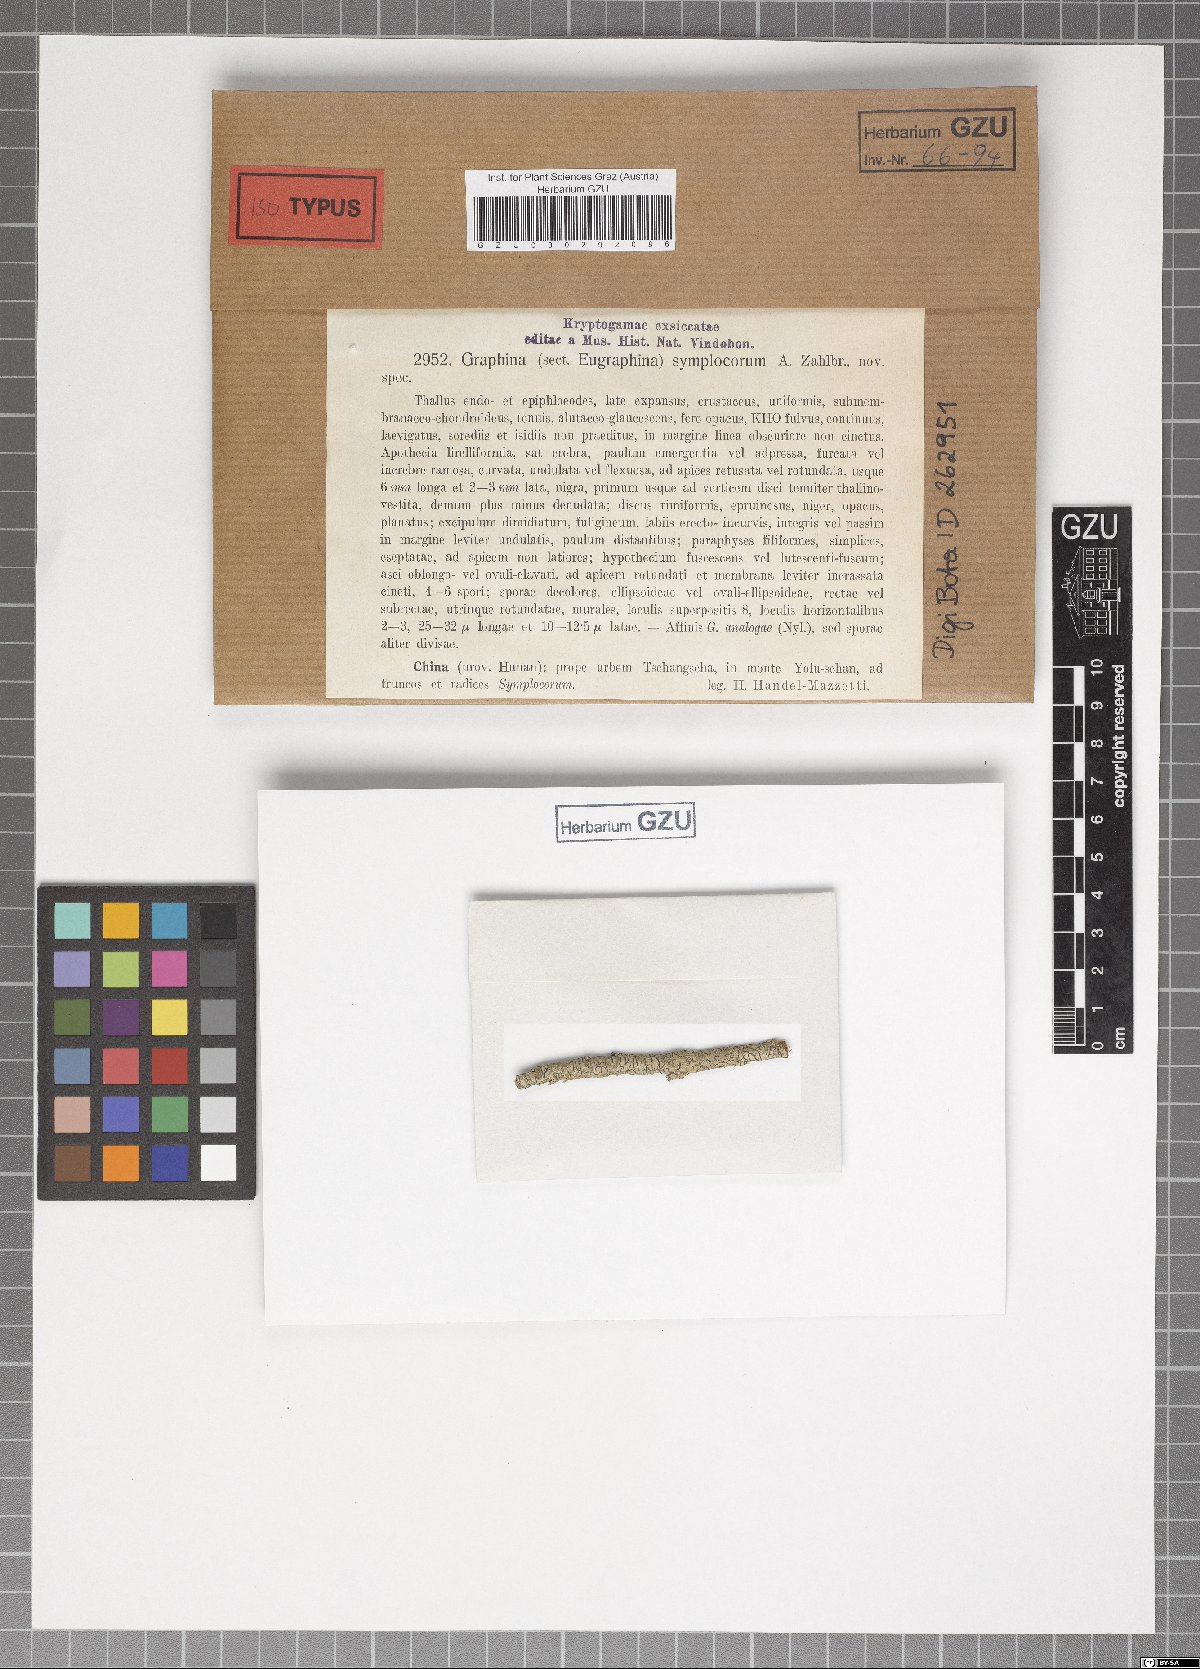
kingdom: Fungi
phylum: Ascomycota
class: Lecanoromycetes
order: Ostropales
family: Graphidaceae
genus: Graphina
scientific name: Graphina symplocorum
